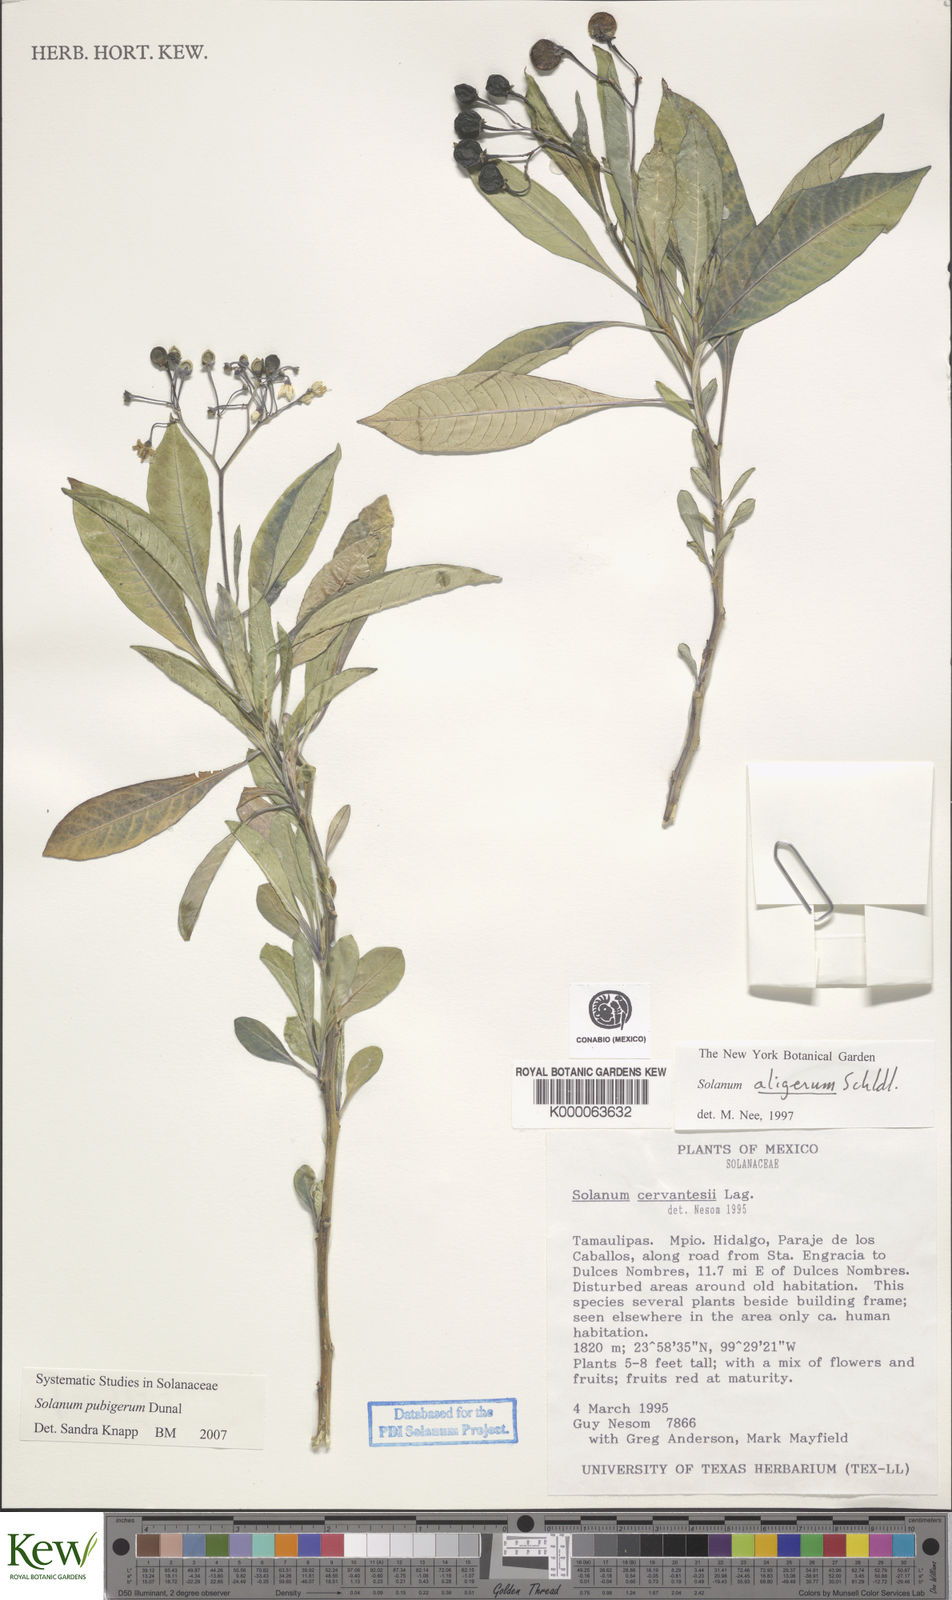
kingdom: Plantae
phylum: Tracheophyta
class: Magnoliopsida
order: Solanales
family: Solanaceae
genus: Solanum
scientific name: Solanum aligerum
